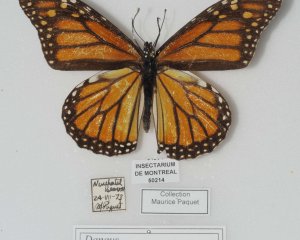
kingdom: Animalia
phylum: Arthropoda
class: Insecta
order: Lepidoptera
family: Nymphalidae
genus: Danaus
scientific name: Danaus plexippus
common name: Monarch
